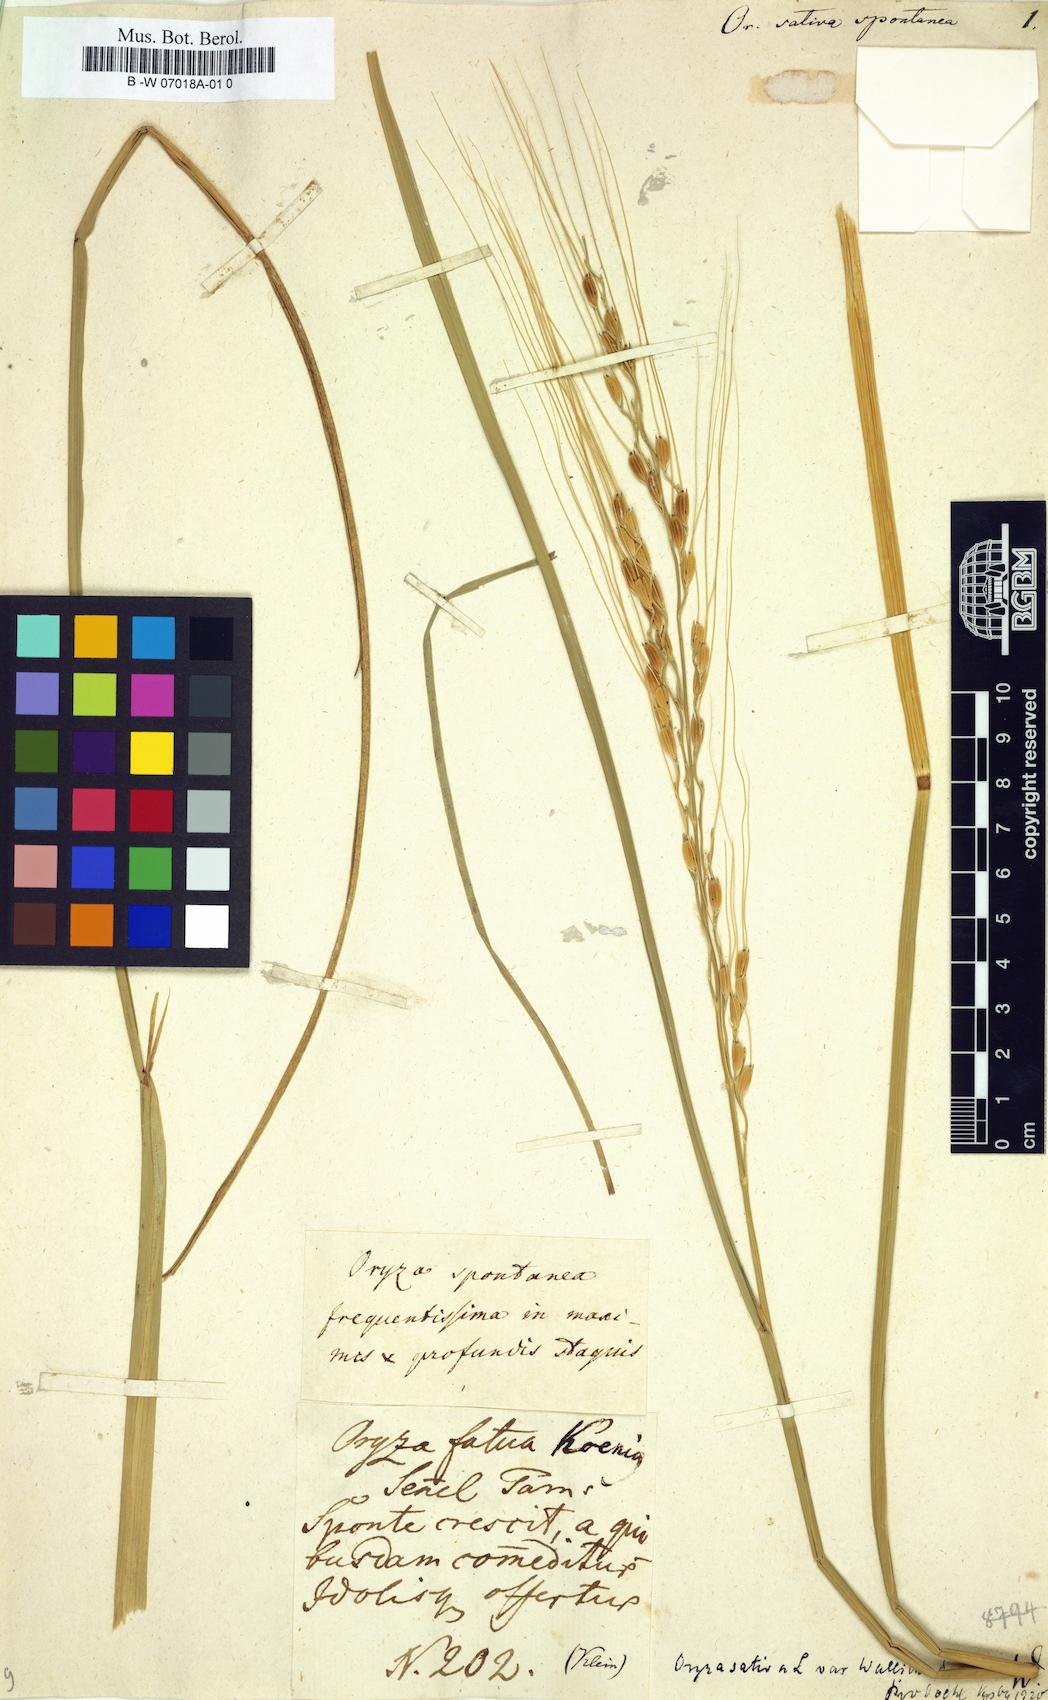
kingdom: Plantae
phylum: Tracheophyta
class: Liliopsida
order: Poales
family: Poaceae
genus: Oryza
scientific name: Oryza sativa
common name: Rice
